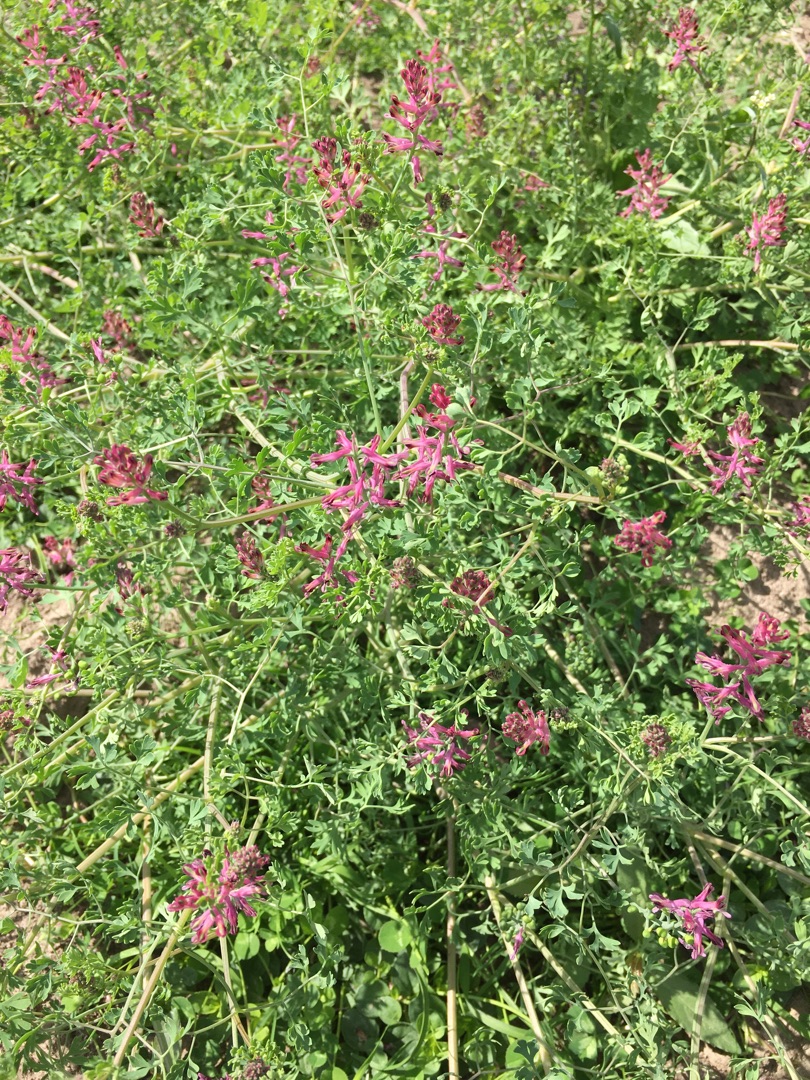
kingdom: Plantae
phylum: Tracheophyta
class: Magnoliopsida
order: Ranunculales
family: Papaveraceae
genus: Fumaria
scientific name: Fumaria officinalis
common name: Læge-jordrøg
